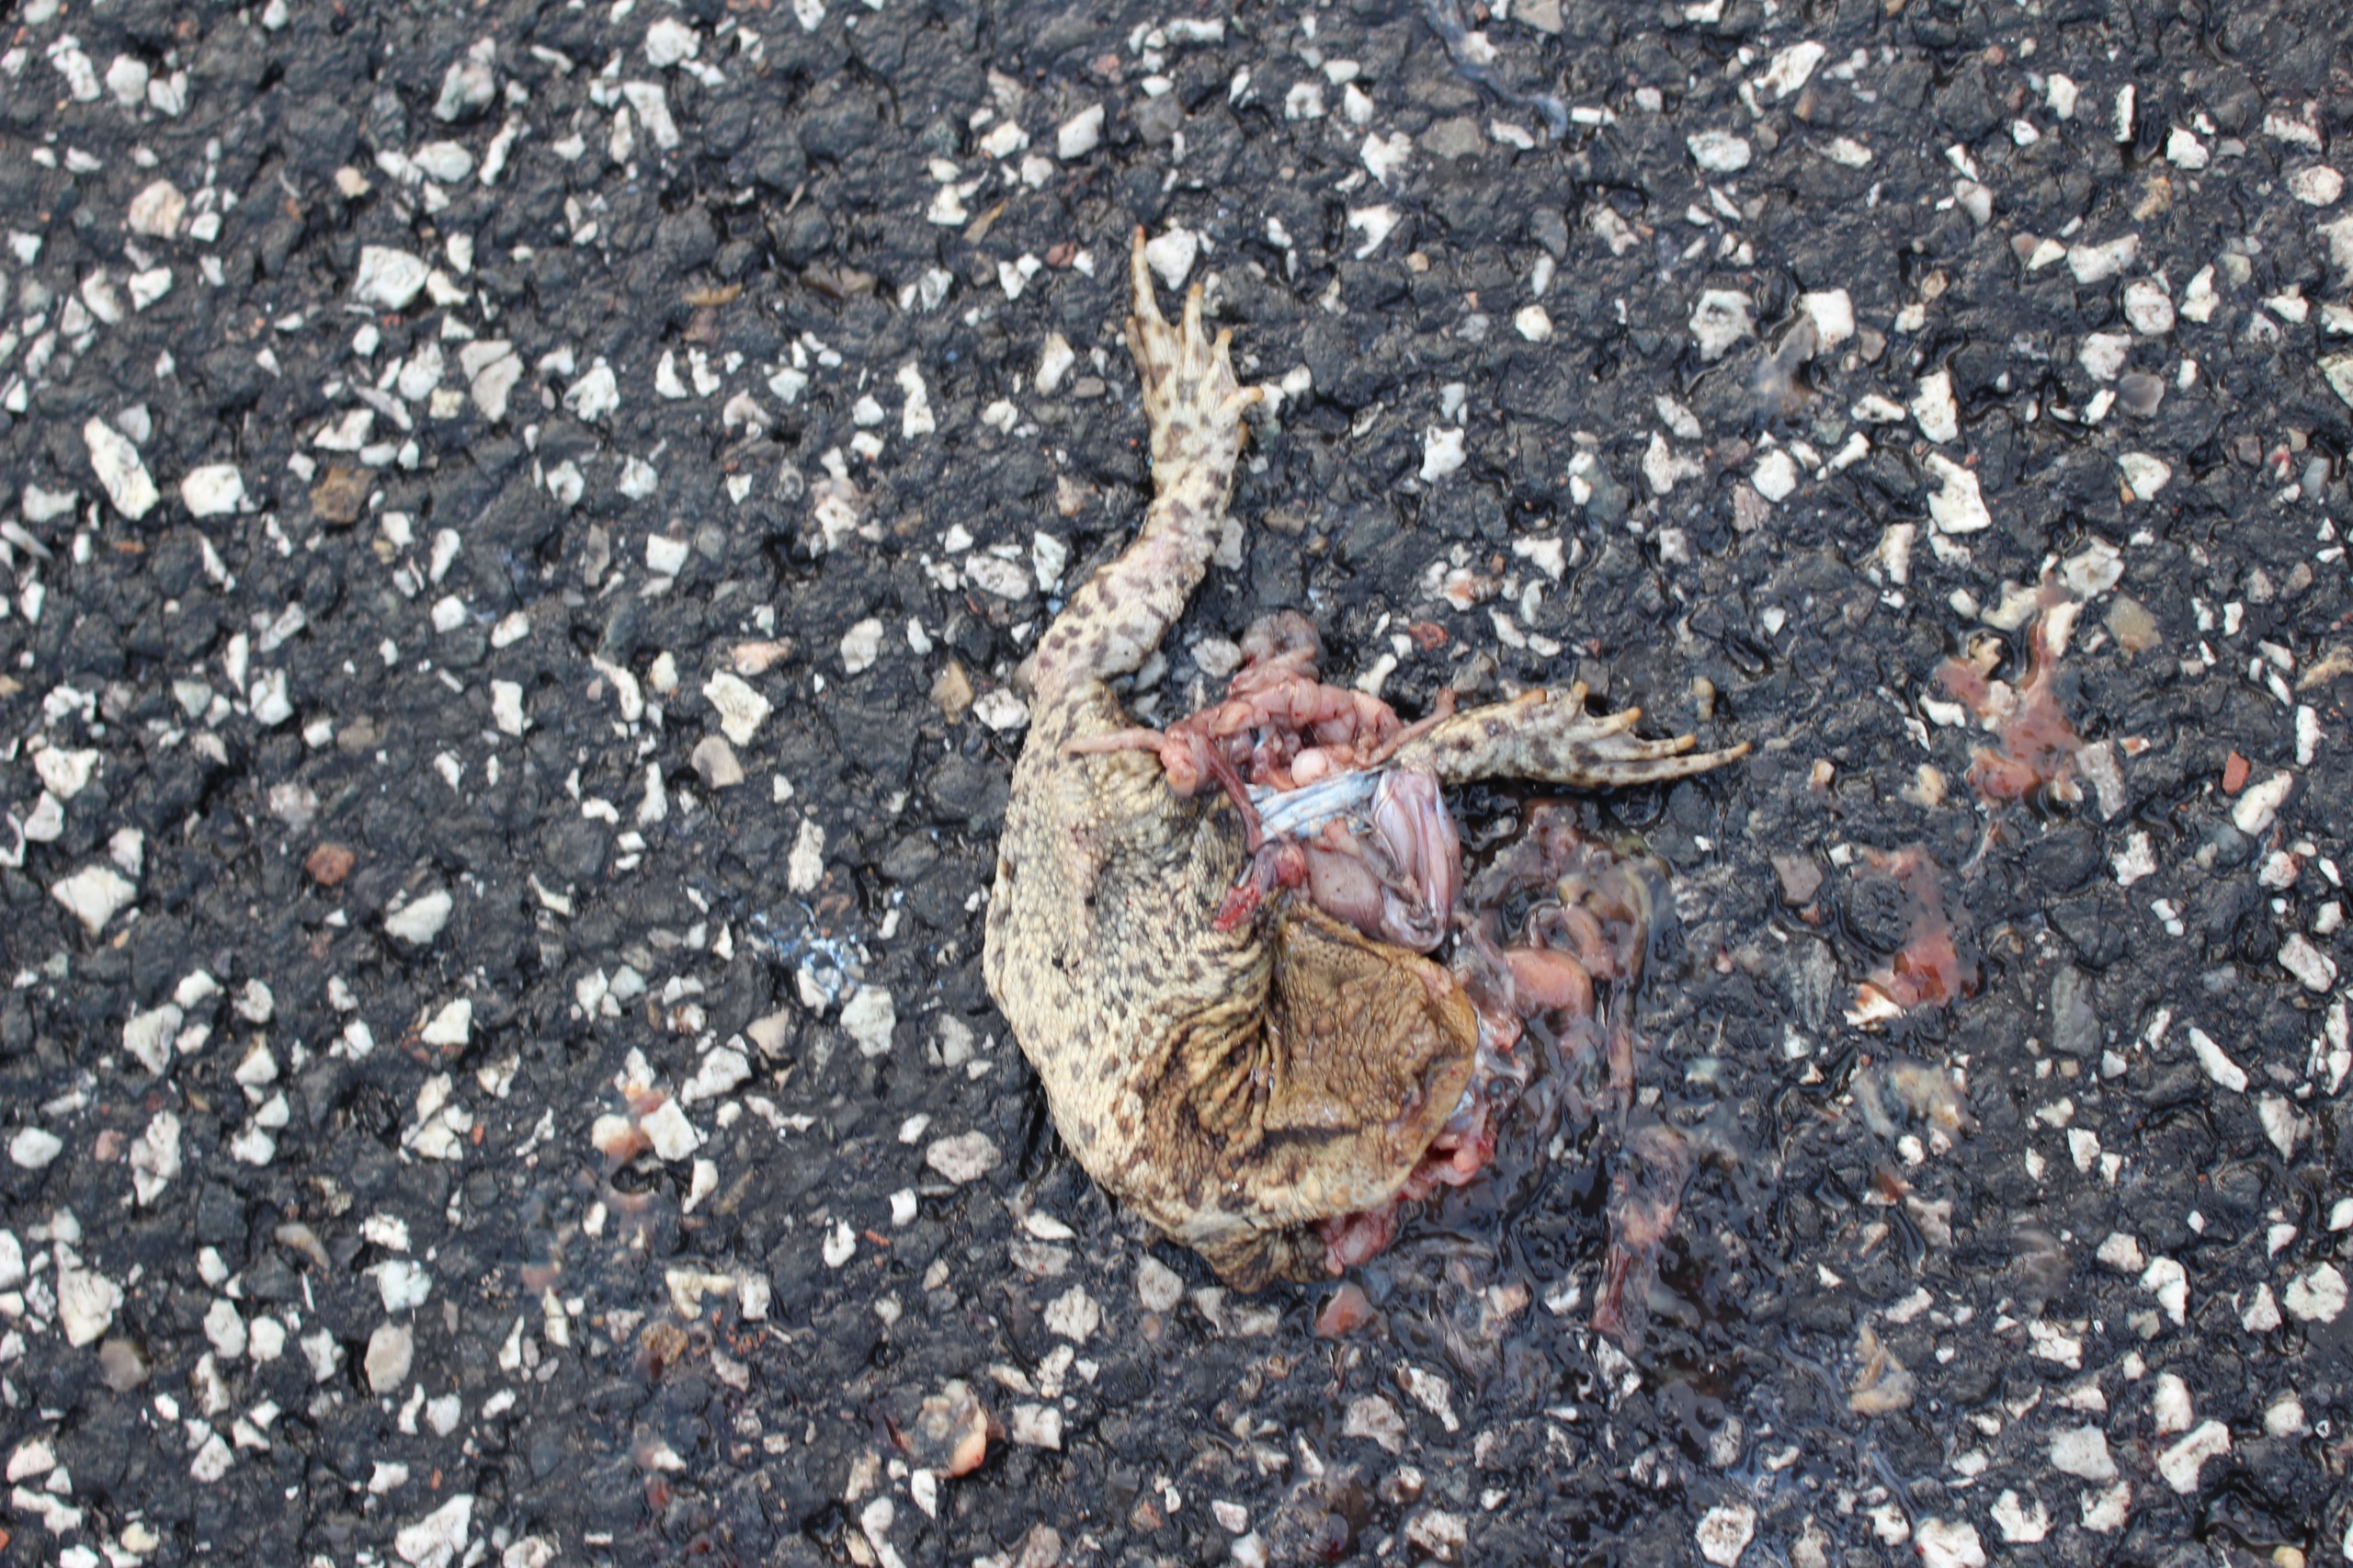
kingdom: Animalia
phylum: Chordata
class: Amphibia
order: Anura
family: Bufonidae
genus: Bufo
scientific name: Bufo bufo
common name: Skrubtudse
